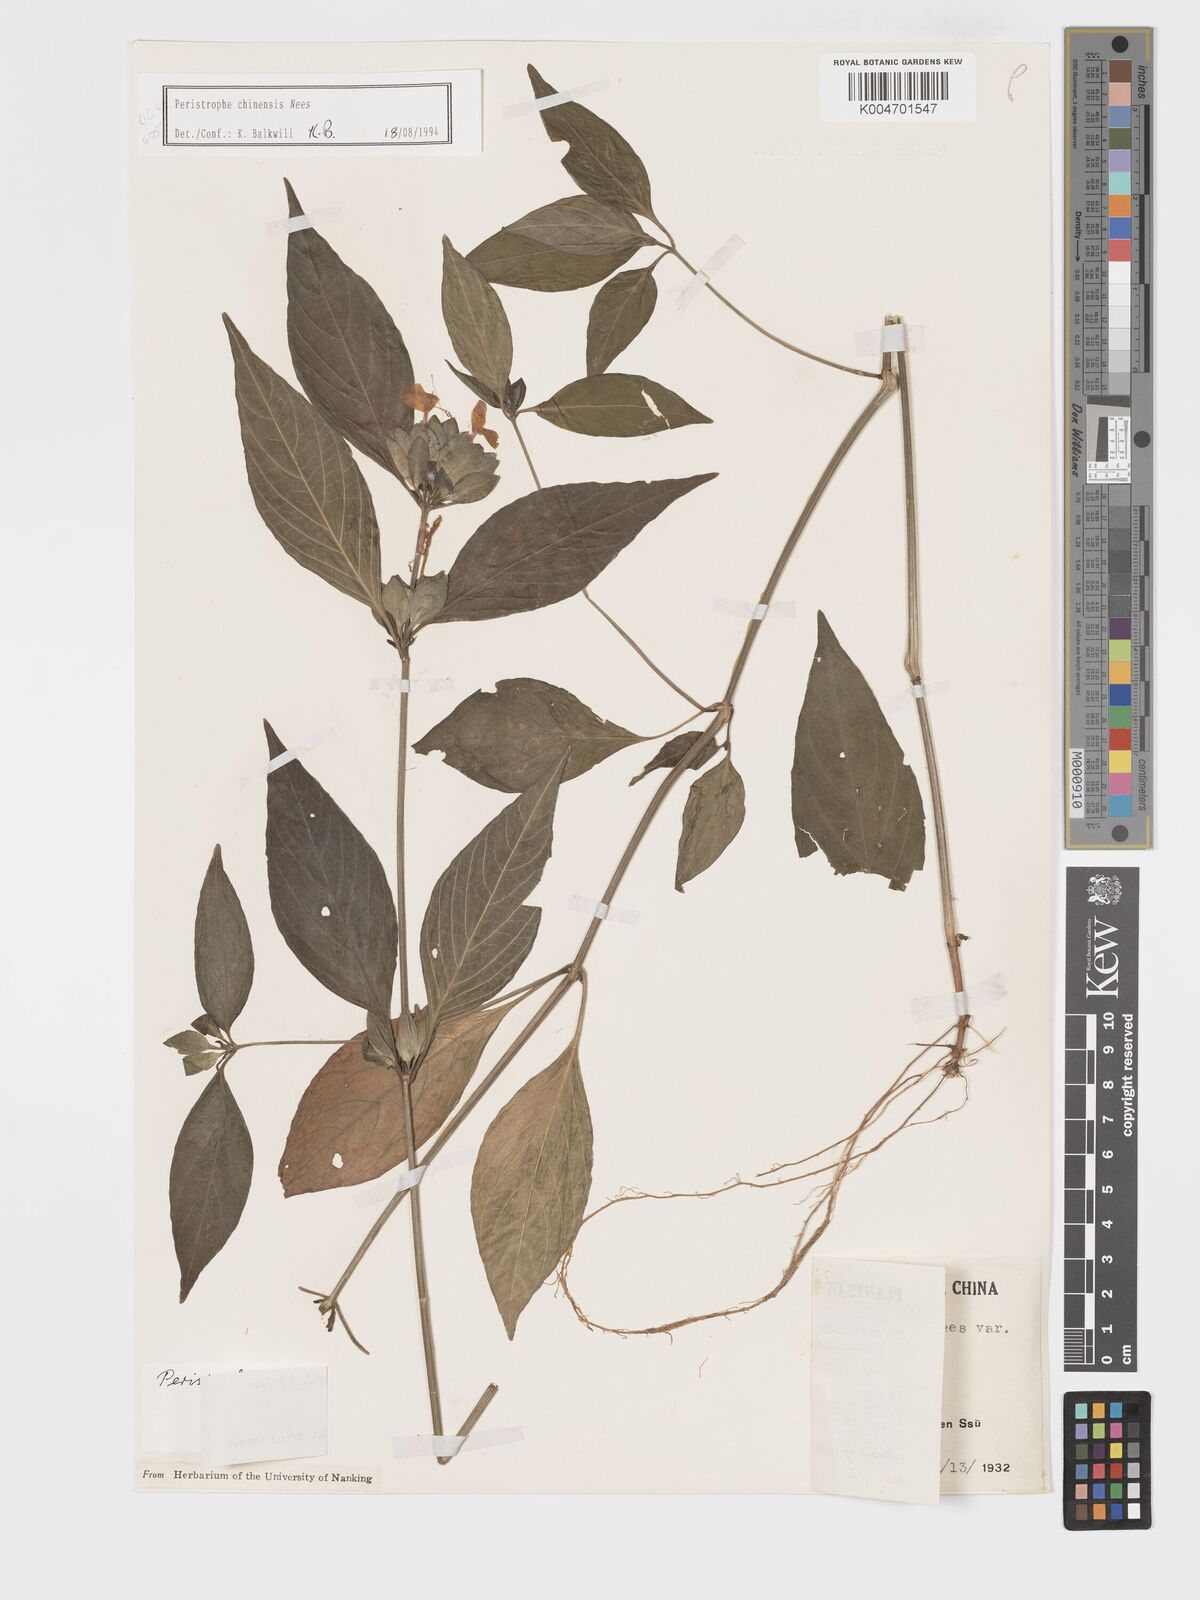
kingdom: Plantae
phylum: Tracheophyta
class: Magnoliopsida
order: Lamiales
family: Acanthaceae
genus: Dicliptera
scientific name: Dicliptera chinensis
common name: Chinese foldwing
